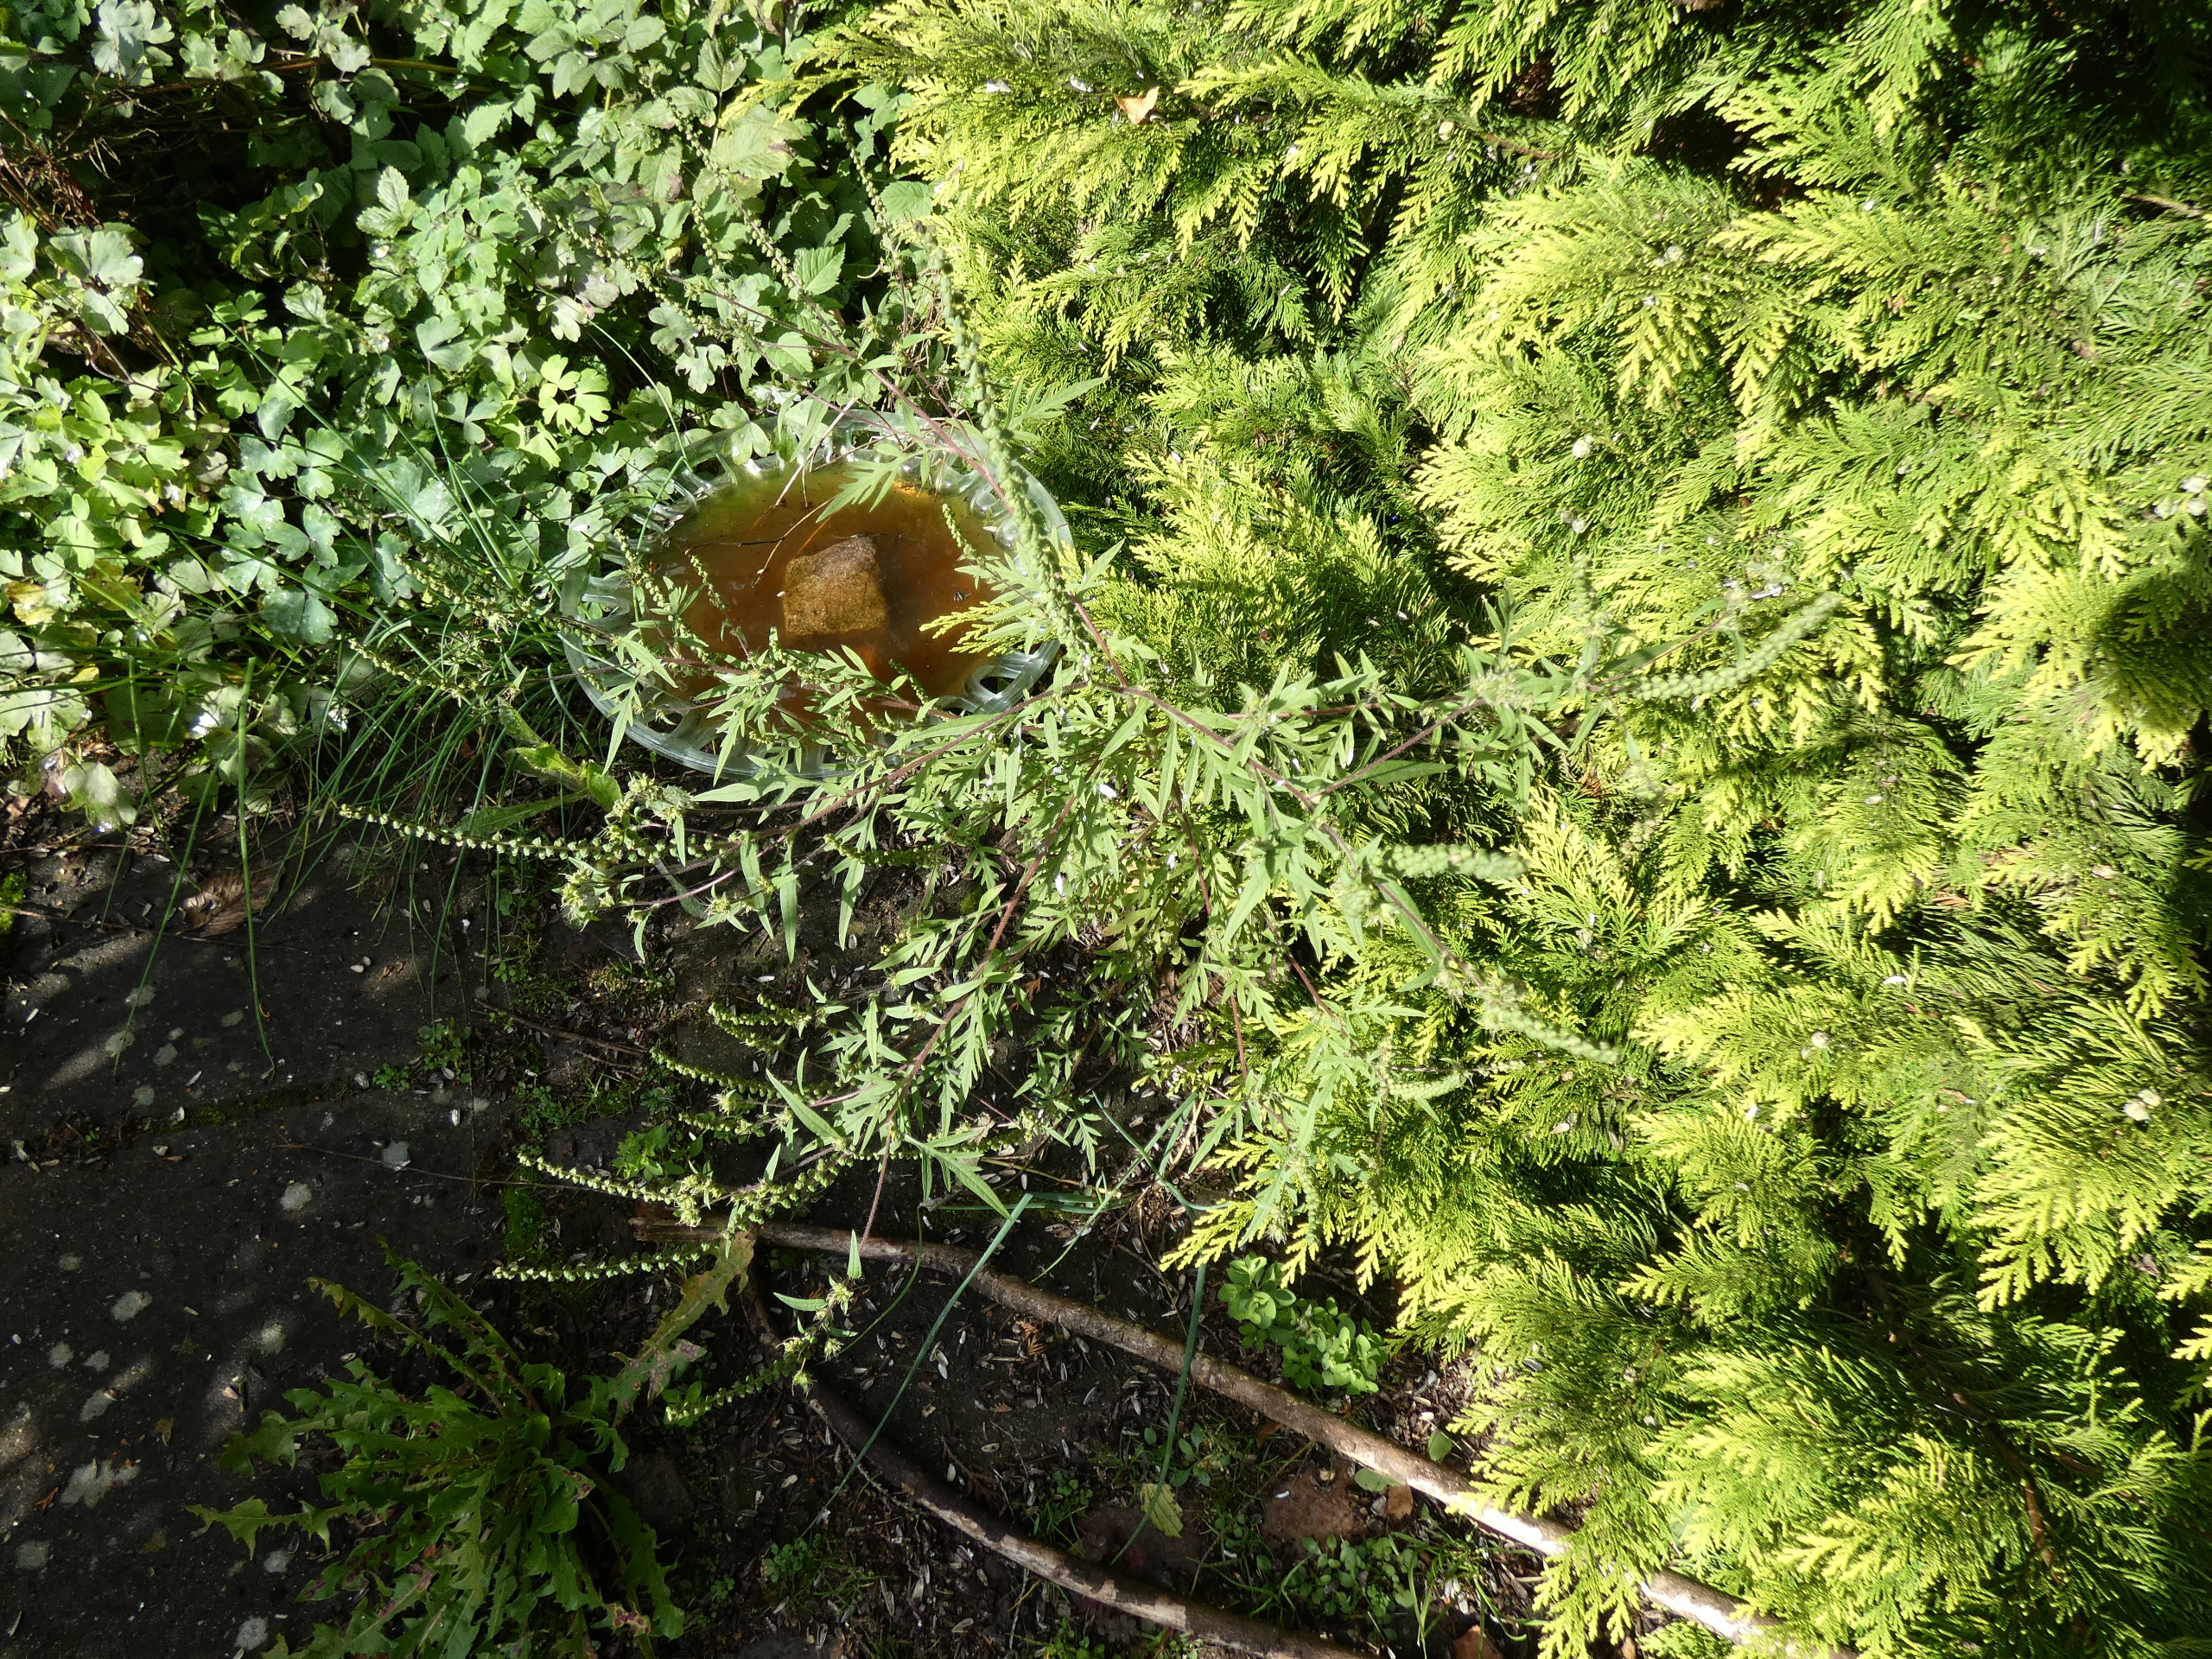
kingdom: Plantae
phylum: Tracheophyta
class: Magnoliopsida
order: Asterales
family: Asteraceae
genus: Ambrosia
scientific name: Ambrosia artemisiifolia
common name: Bynke-ambrosie
